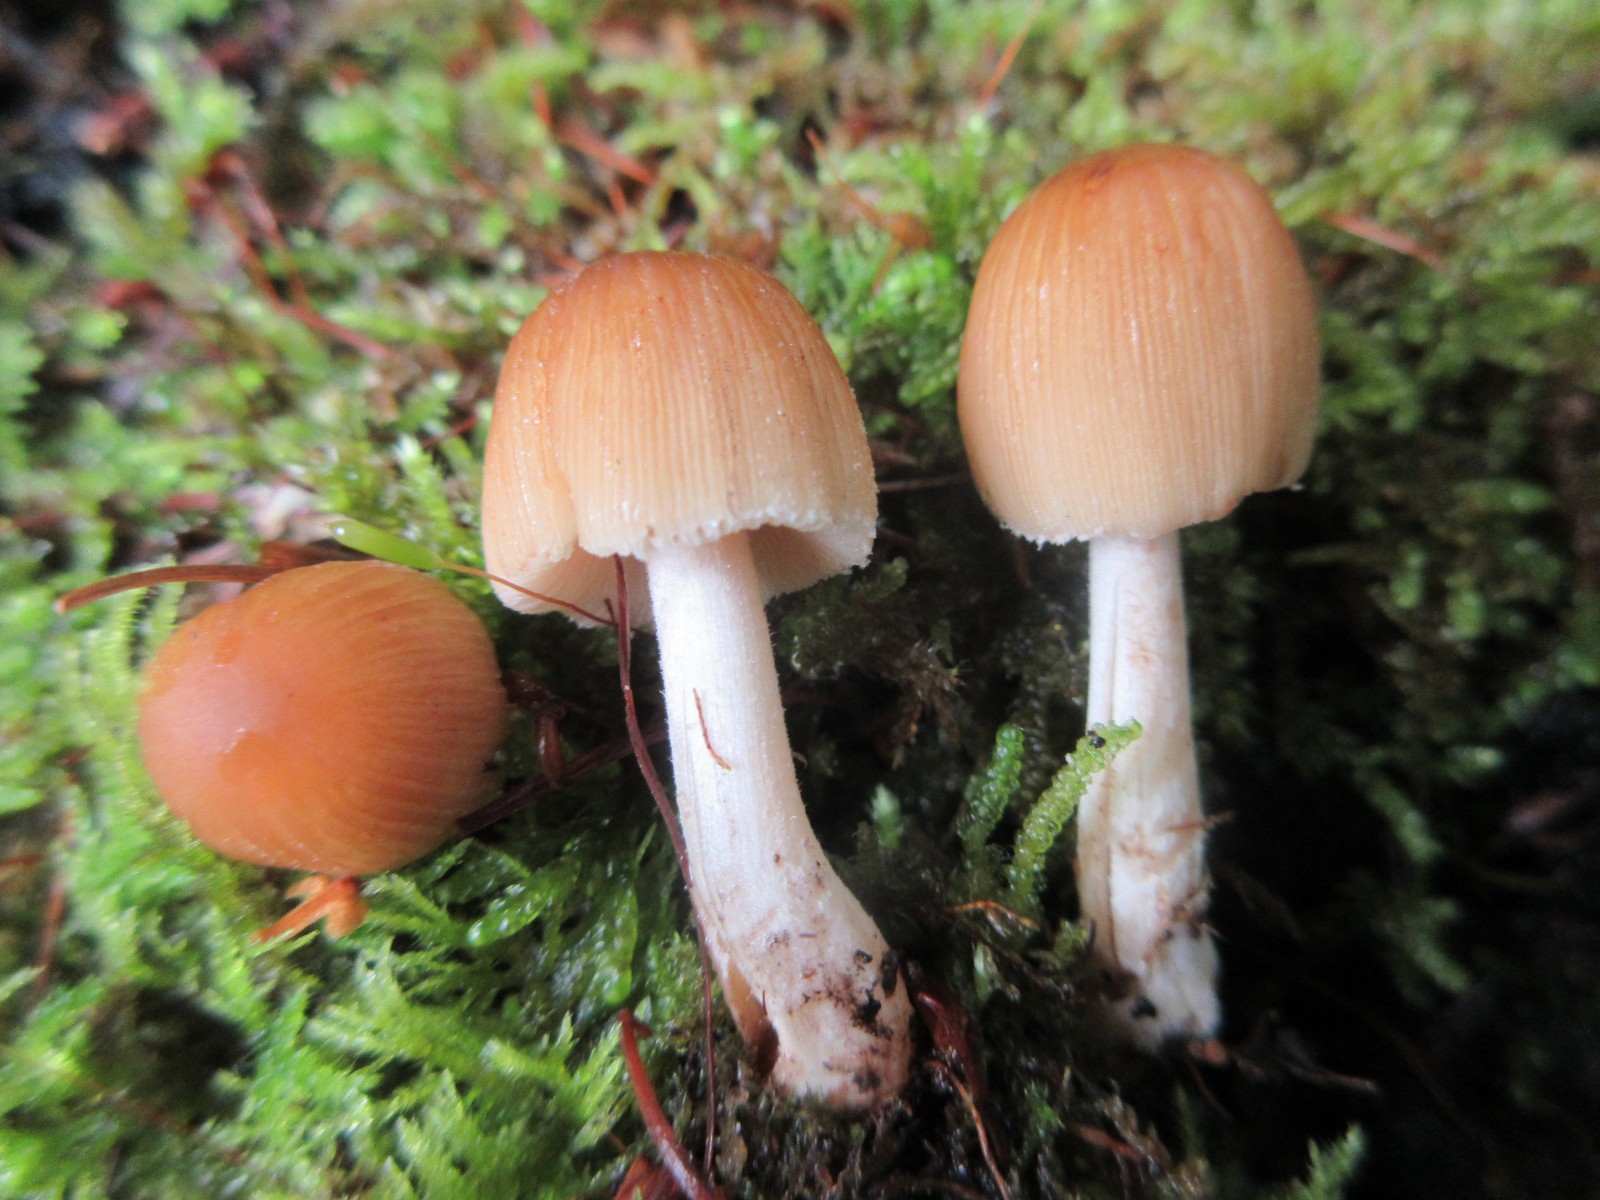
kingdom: Fungi
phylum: Basidiomycota
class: Agaricomycetes
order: Agaricales
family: Psathyrellaceae
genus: Coprinellus
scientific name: Coprinellus micaceus
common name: glimmer-blækhat
